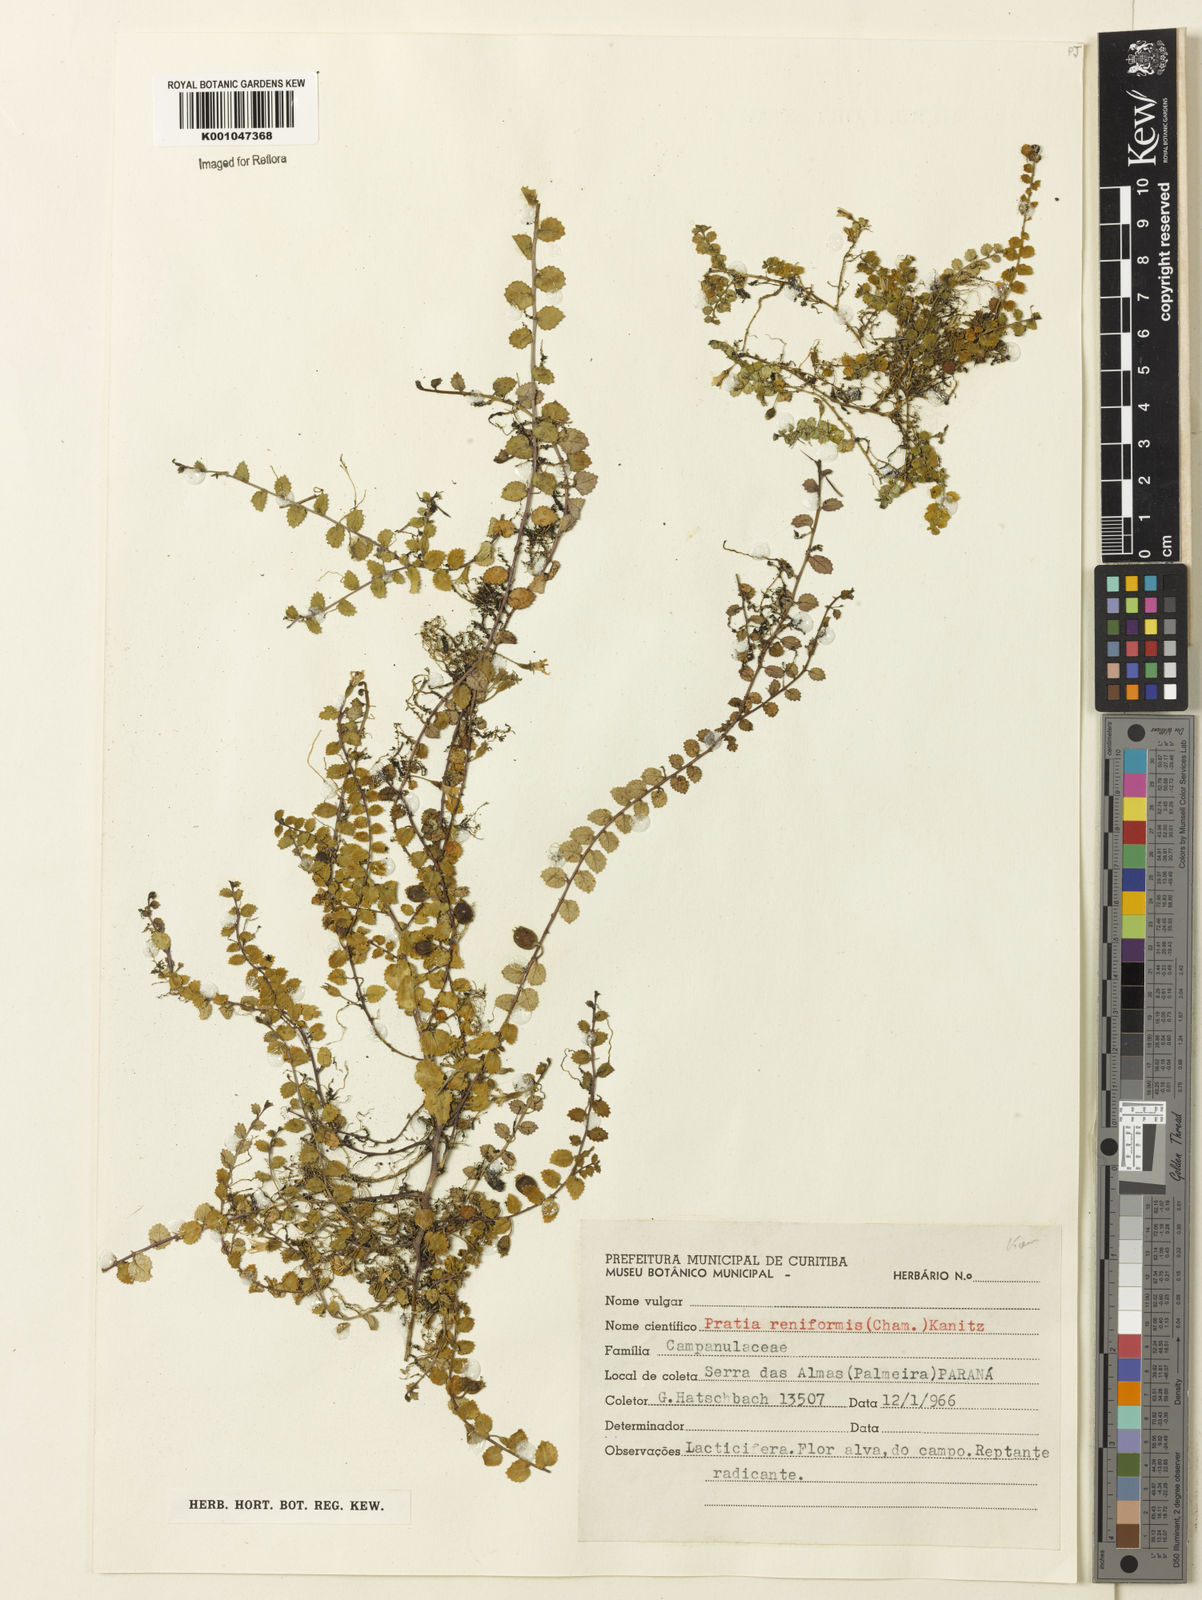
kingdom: Plantae
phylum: Tracheophyta
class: Magnoliopsida
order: Asterales
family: Campanulaceae
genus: Lobelia
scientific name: Lobelia reniformis
